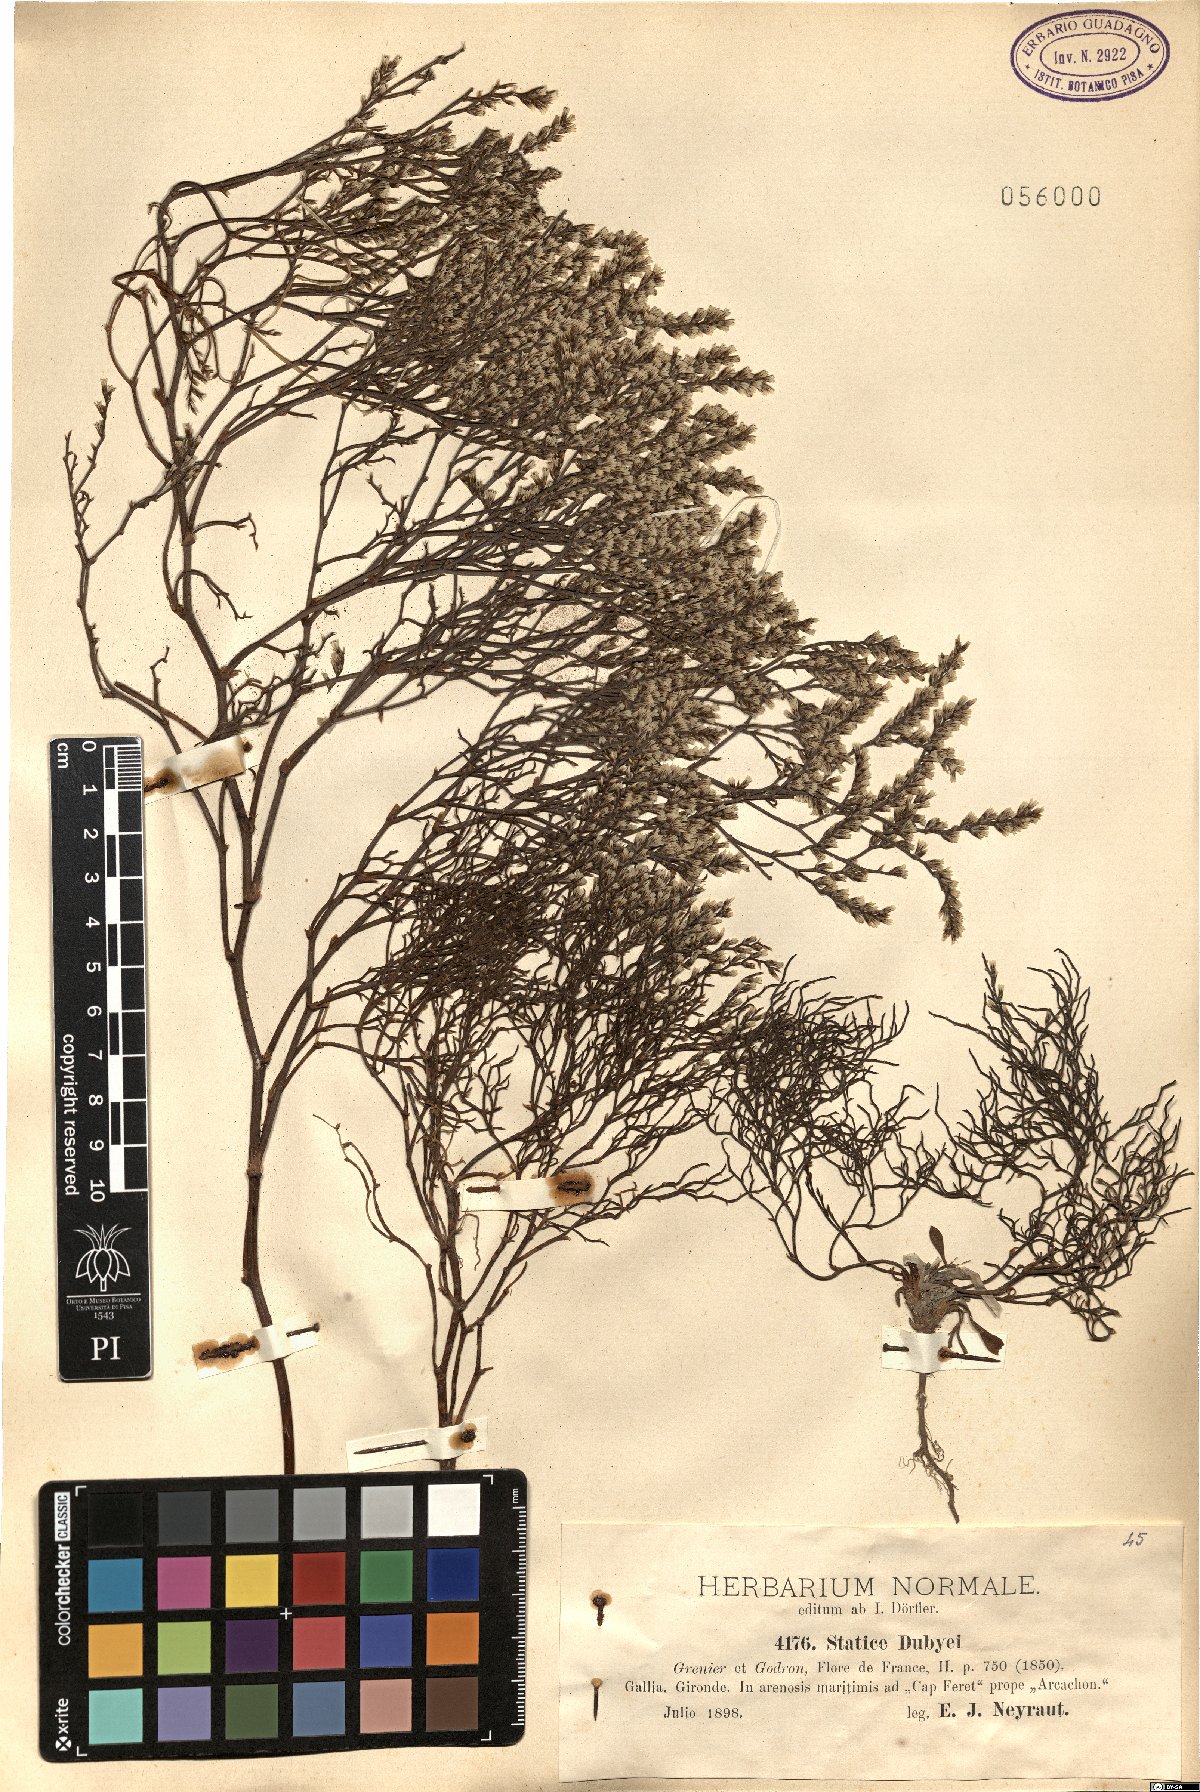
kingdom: Plantae
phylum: Tracheophyta
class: Magnoliopsida
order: Caryophyllales
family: Plumbaginaceae
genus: Limonium
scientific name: Limonium dubyi
